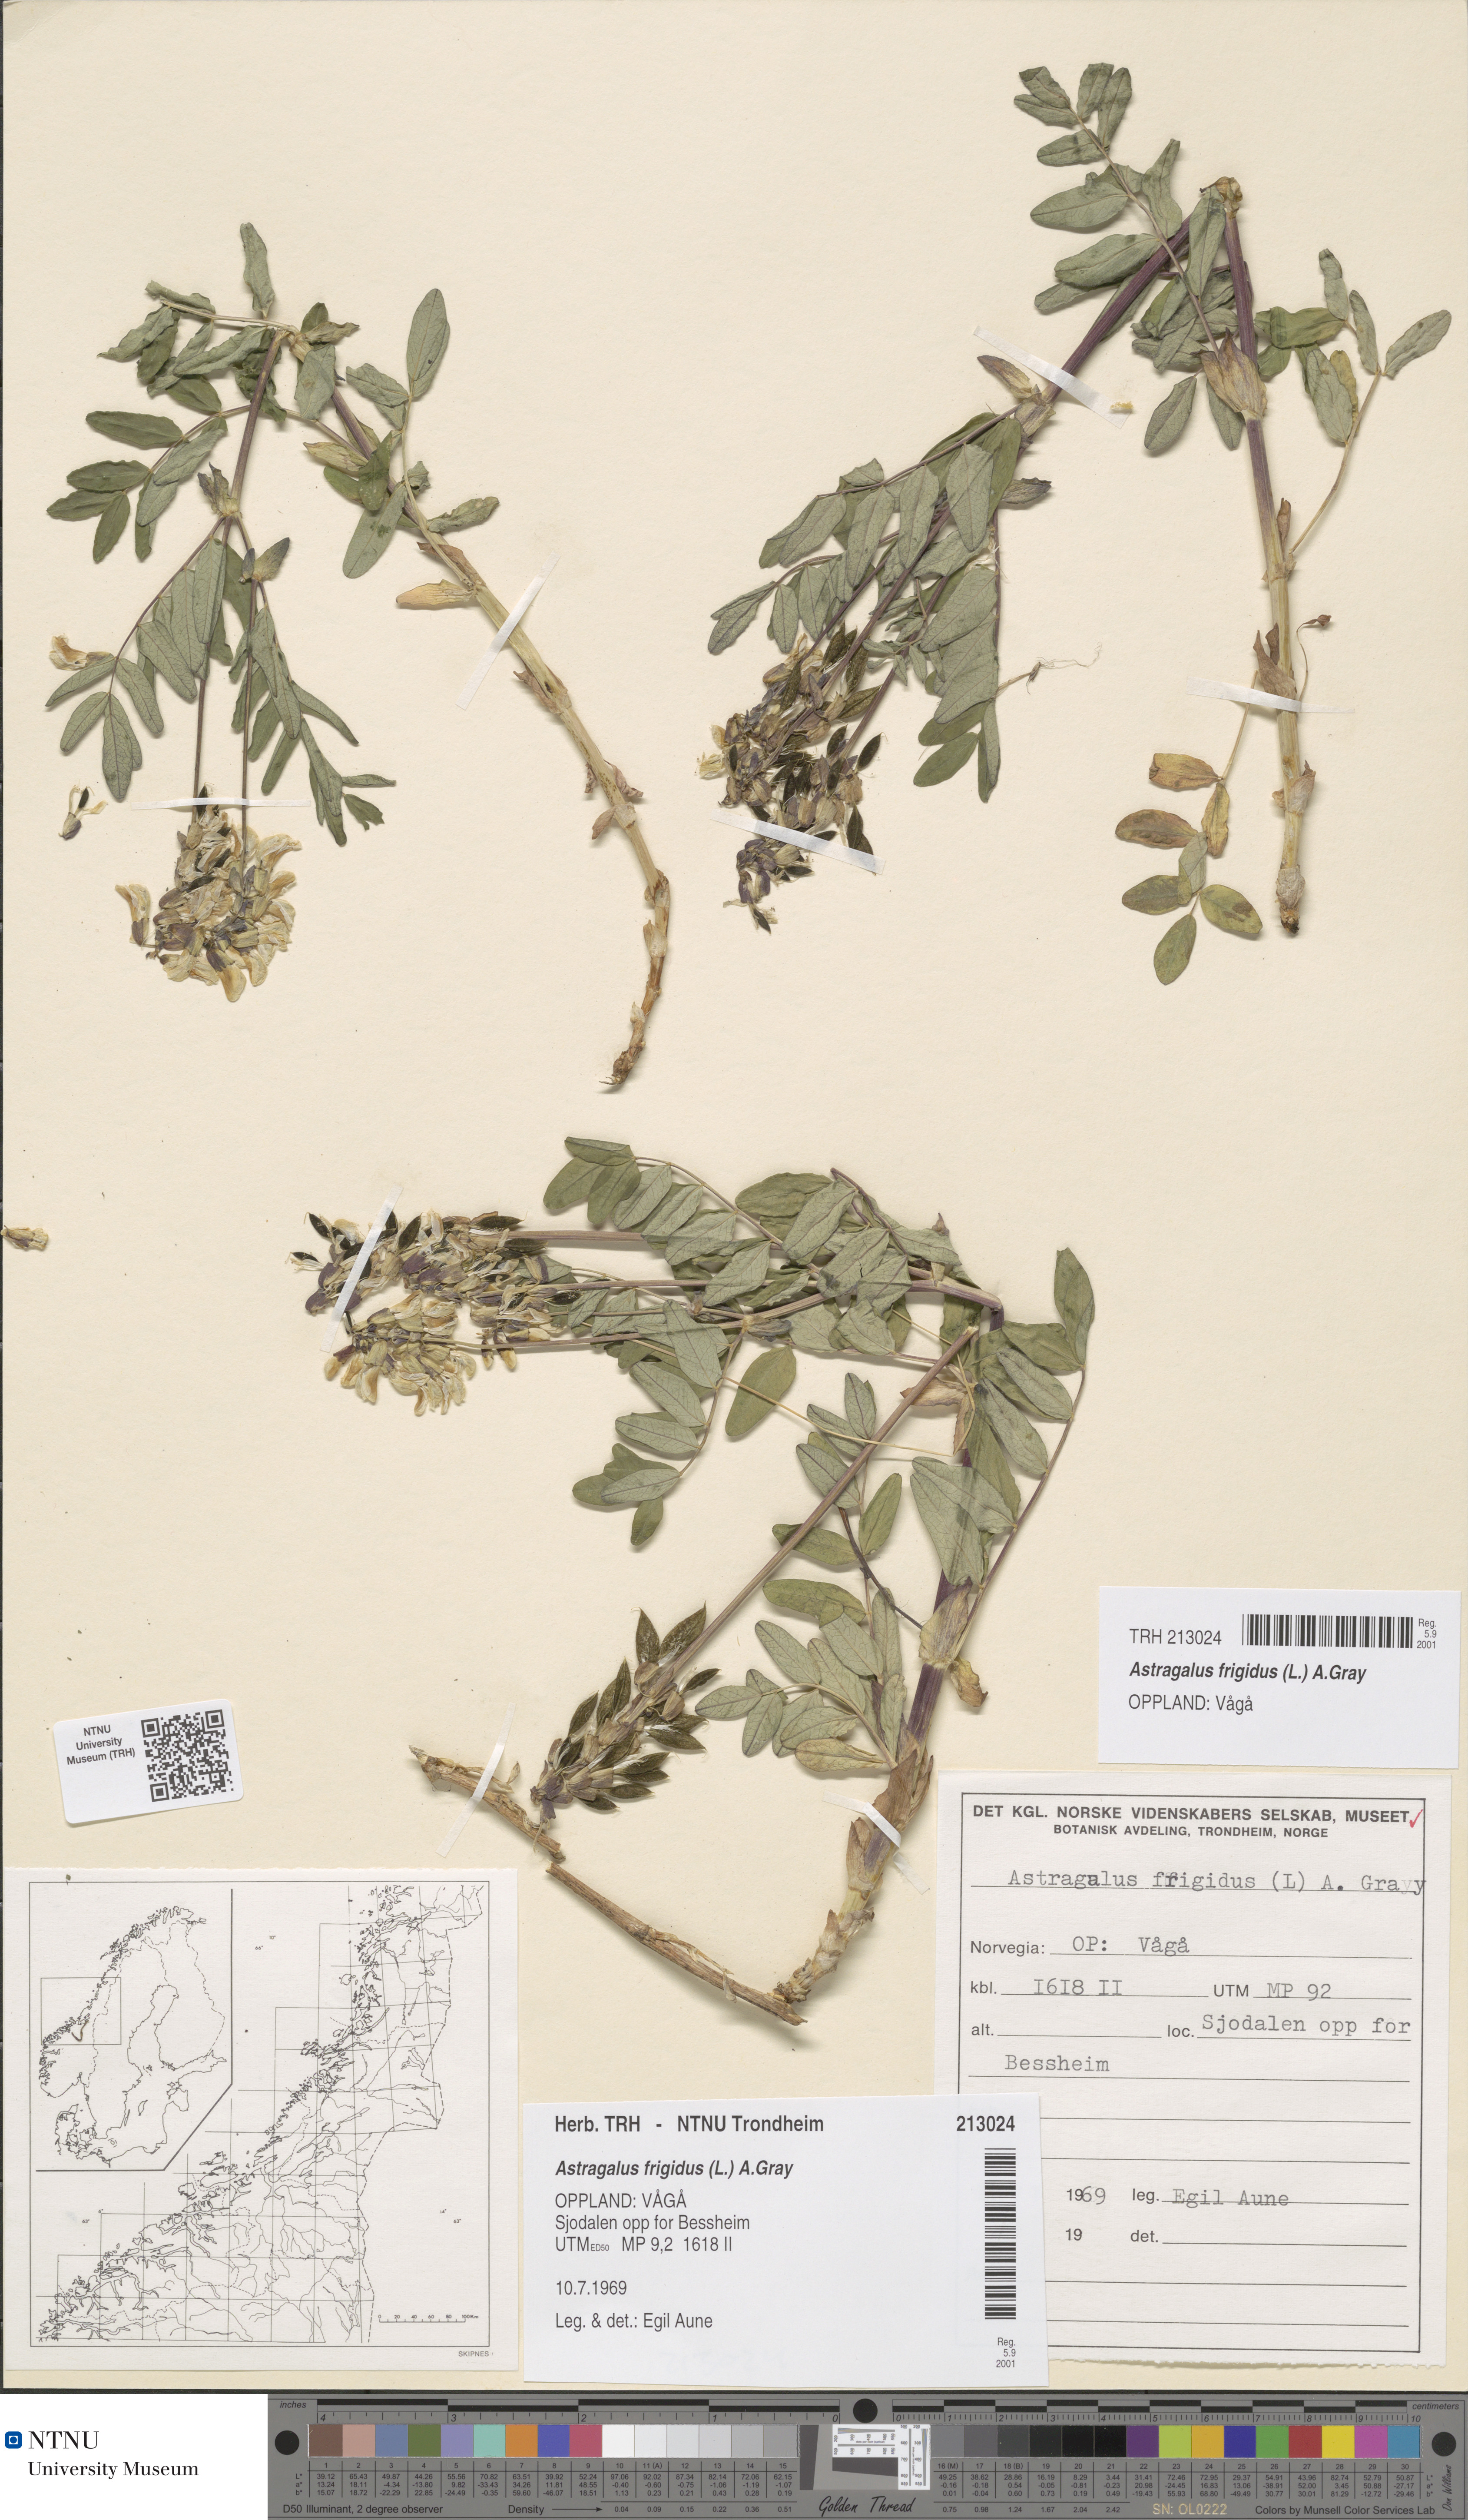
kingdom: Plantae
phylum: Tracheophyta
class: Magnoliopsida
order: Fabales
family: Fabaceae
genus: Astragalus
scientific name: Astragalus frigidus
